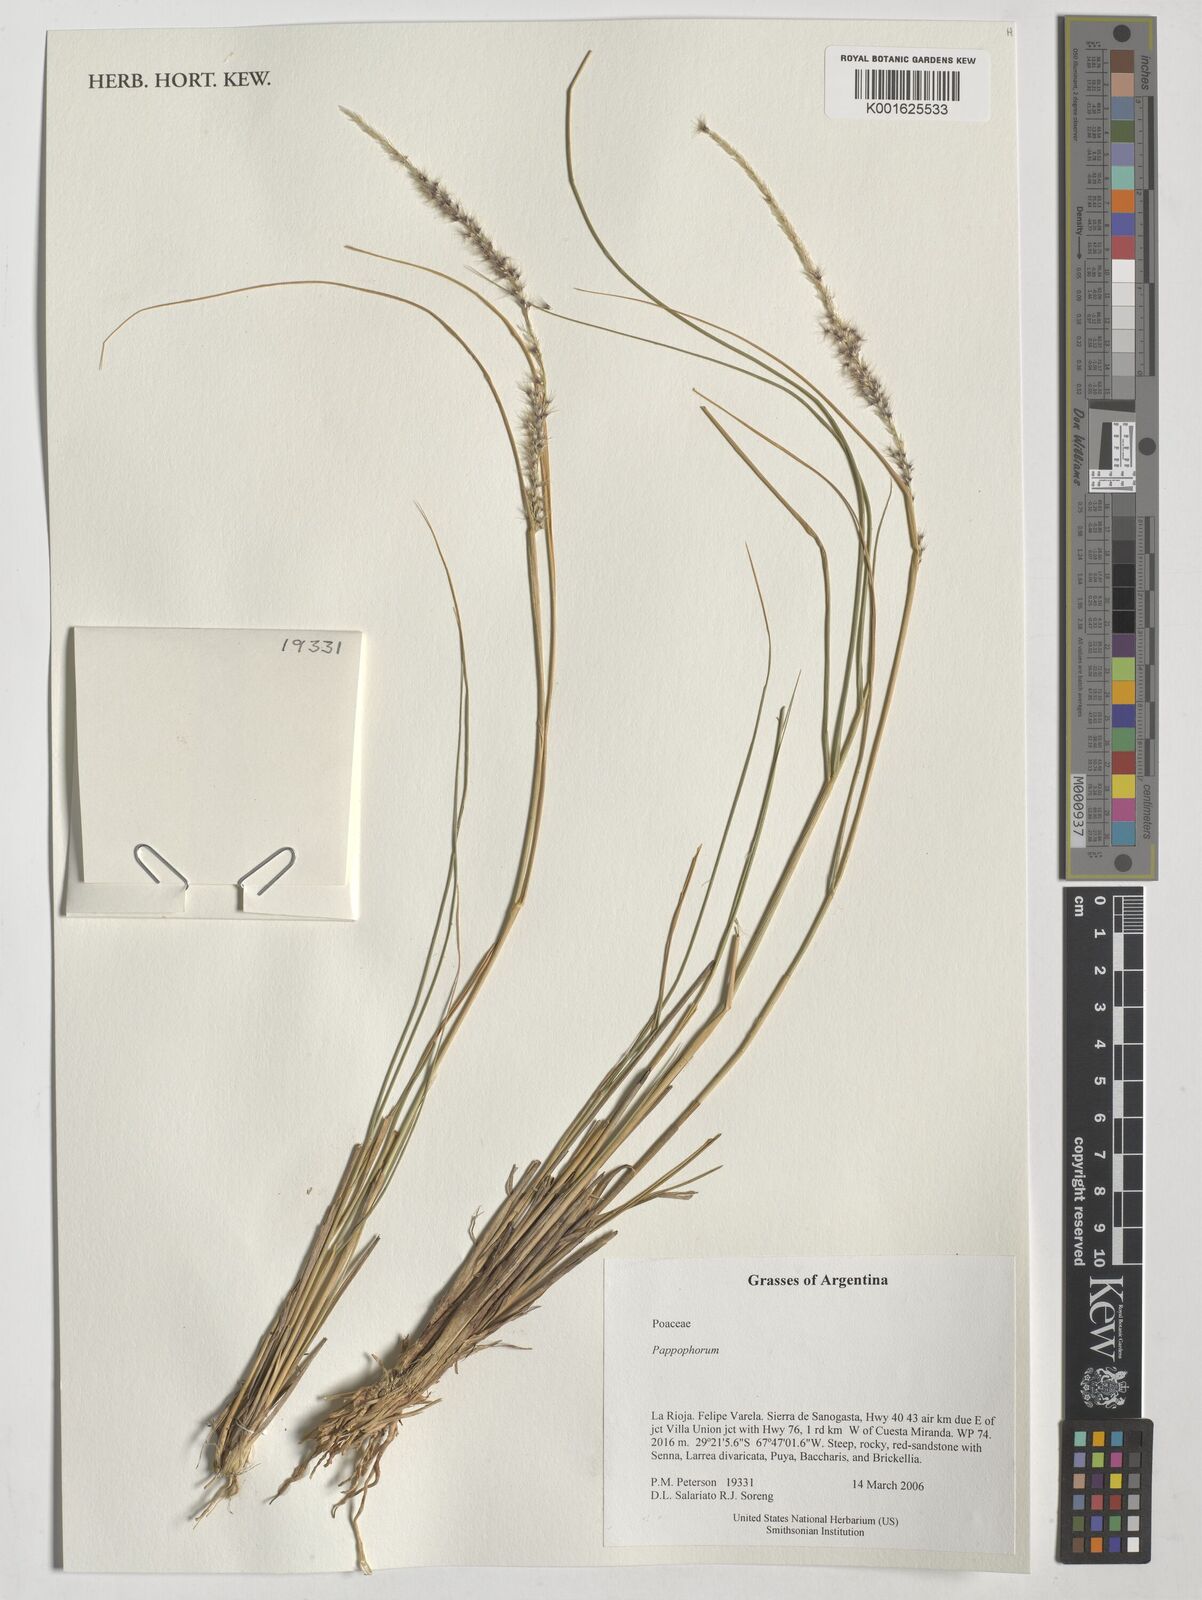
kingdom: Plantae
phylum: Tracheophyta
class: Liliopsida
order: Poales
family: Poaceae
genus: Pappophorum
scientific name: Pappophorum
